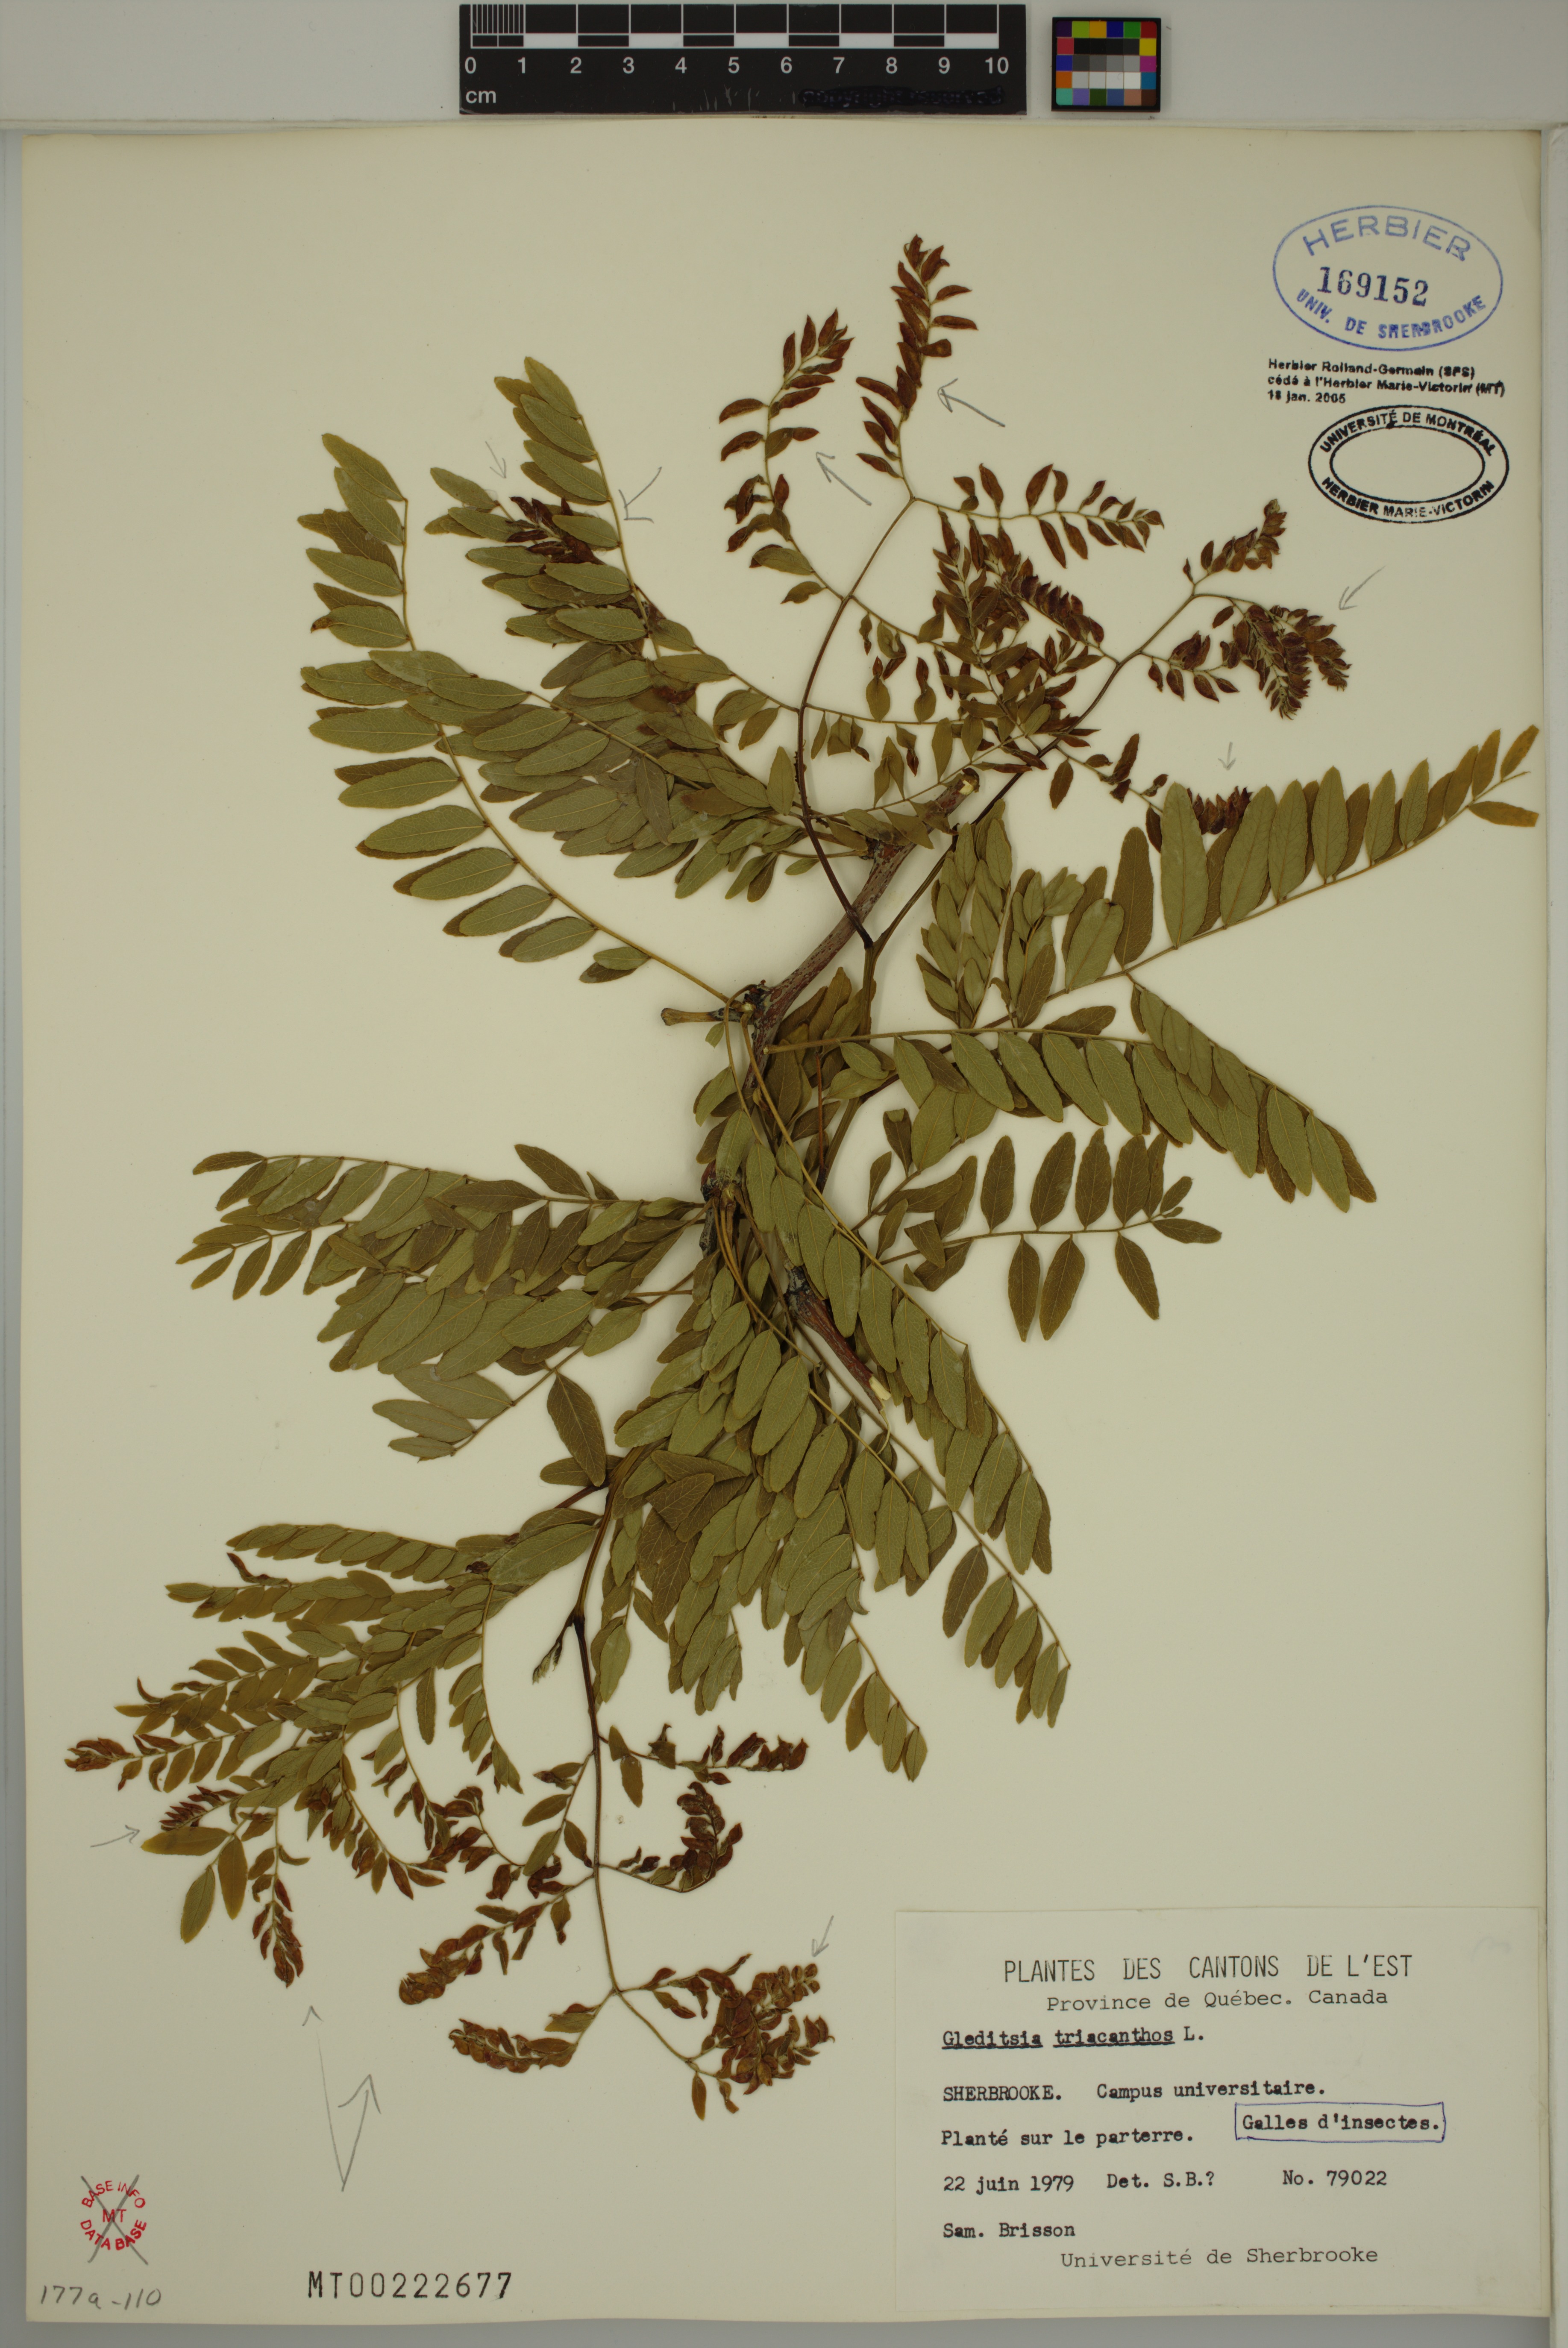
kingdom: Plantae
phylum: Tracheophyta
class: Magnoliopsida
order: Fabales
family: Fabaceae
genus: Gleditsia
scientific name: Gleditsia triacanthos
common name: Common honeylocust
